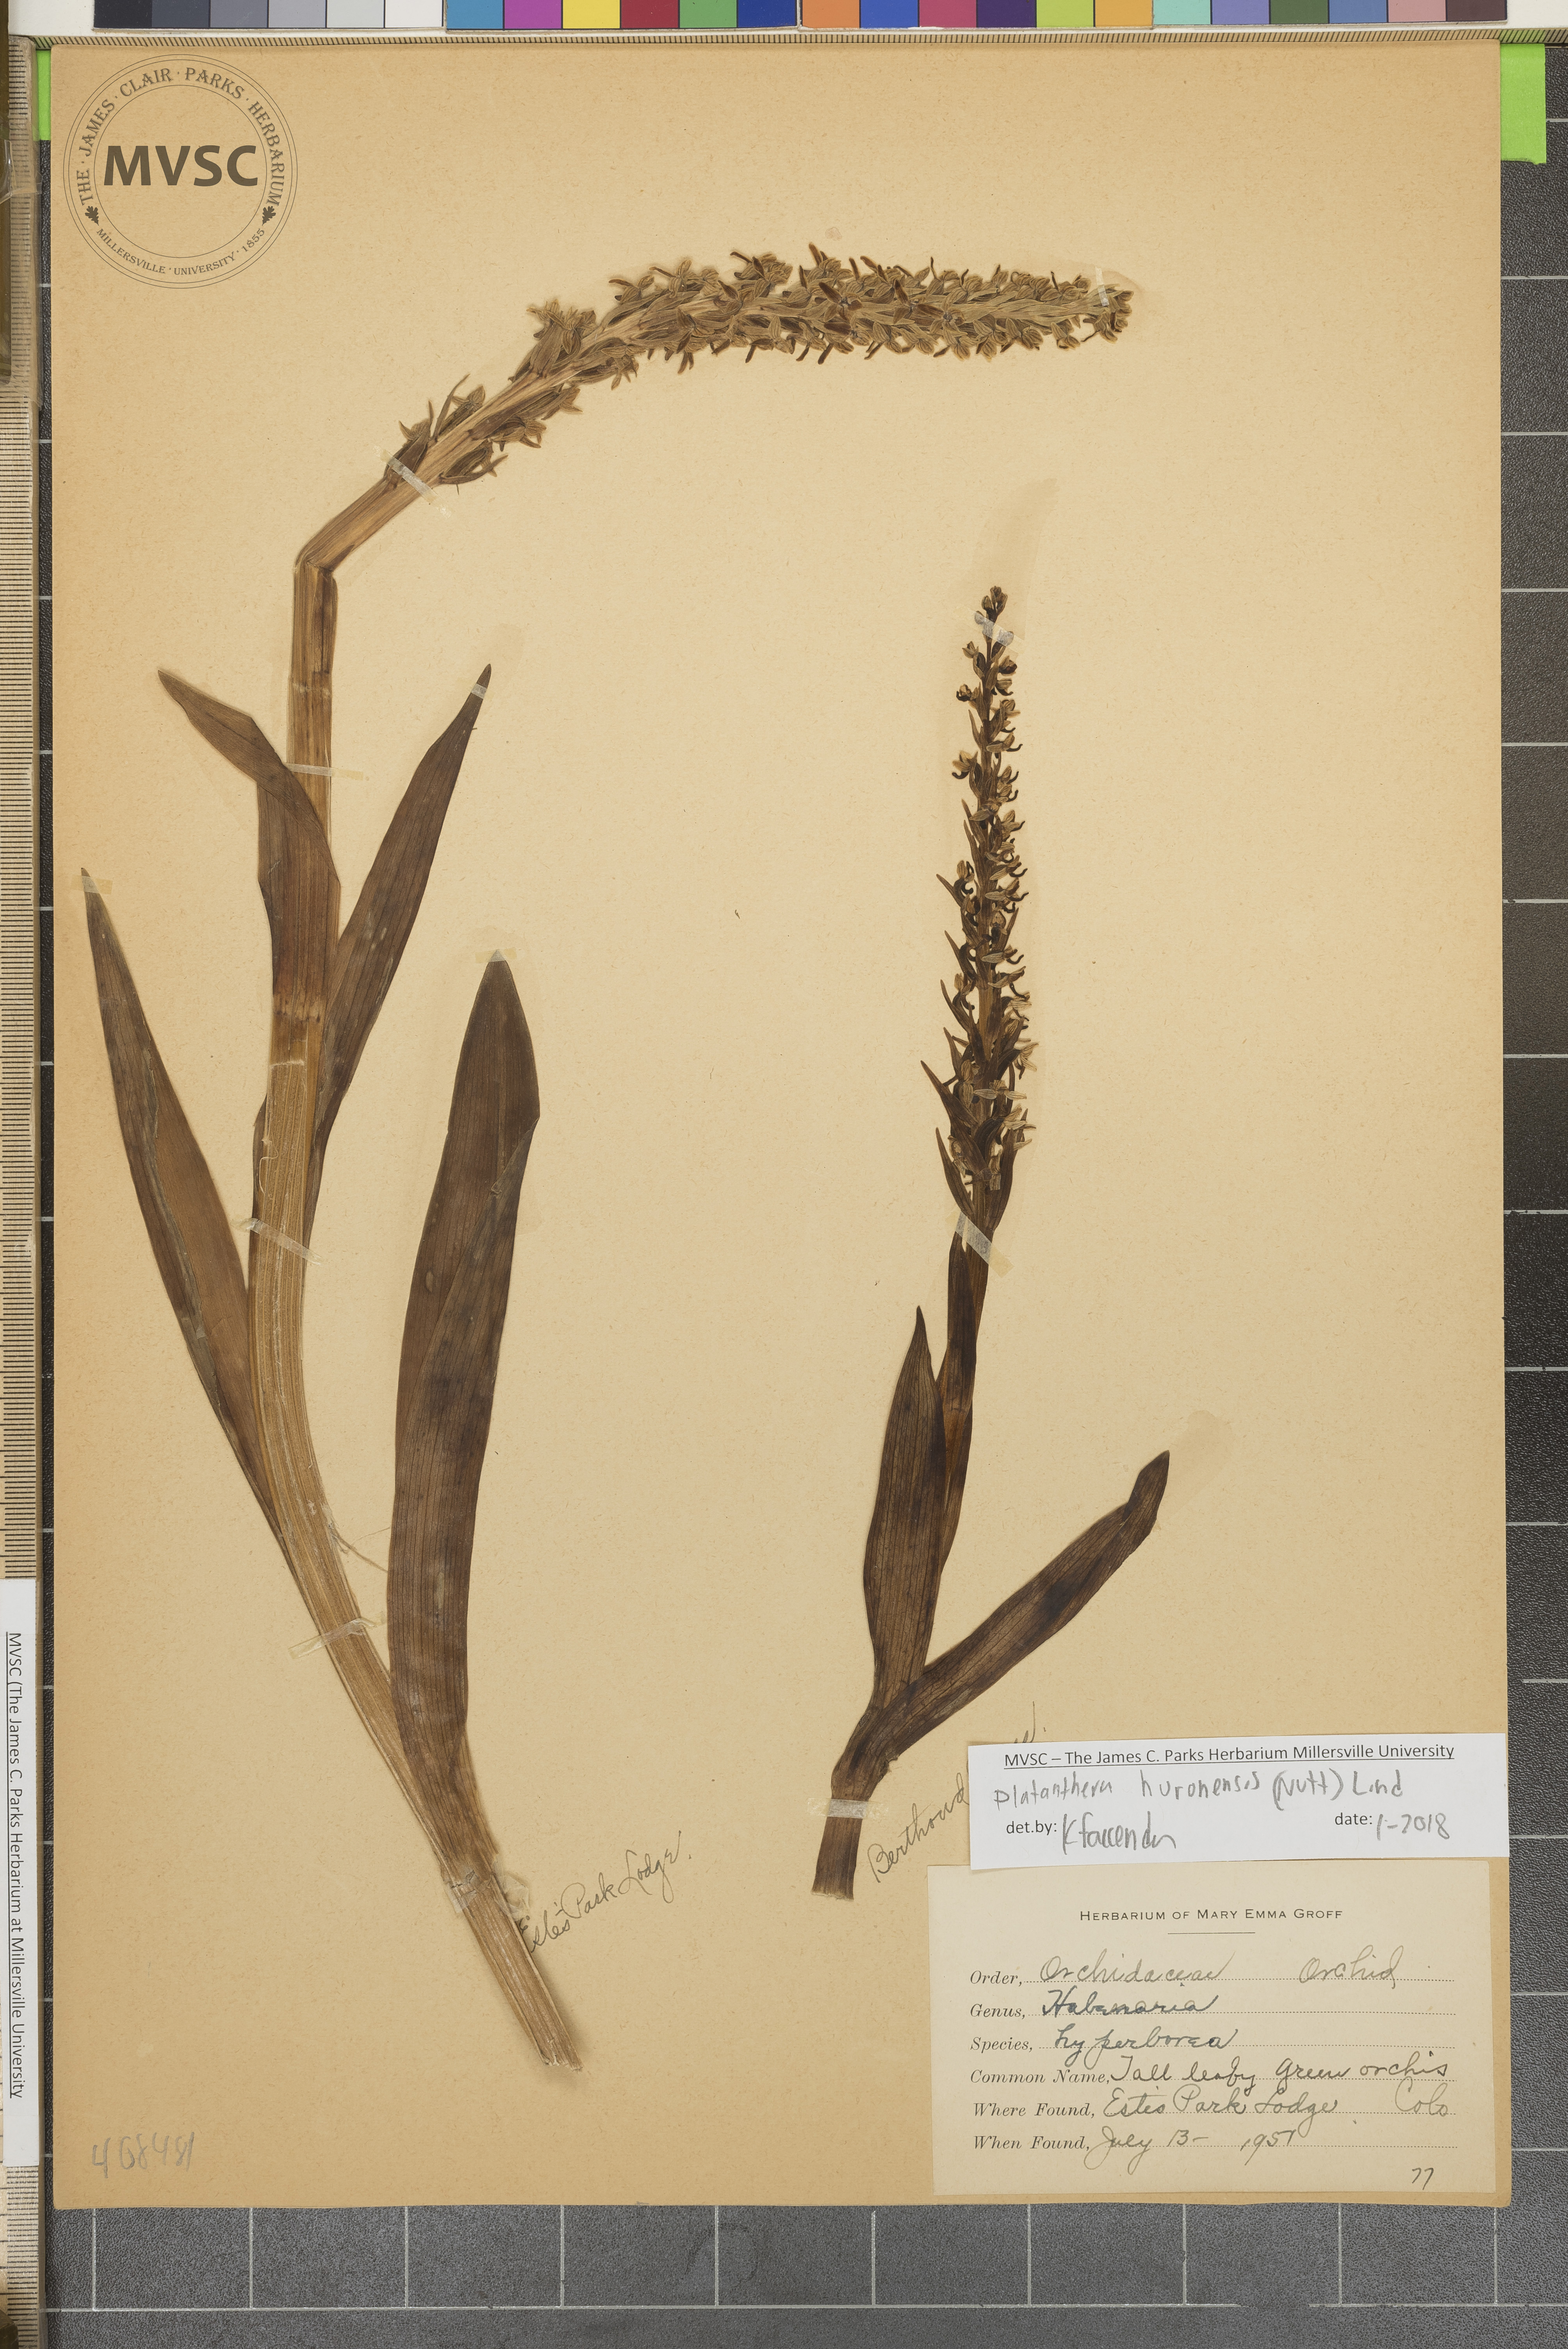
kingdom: Plantae
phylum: Tracheophyta
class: Liliopsida
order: Asparagales
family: Orchidaceae
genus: Platanthera
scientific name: Platanthera huronensis
